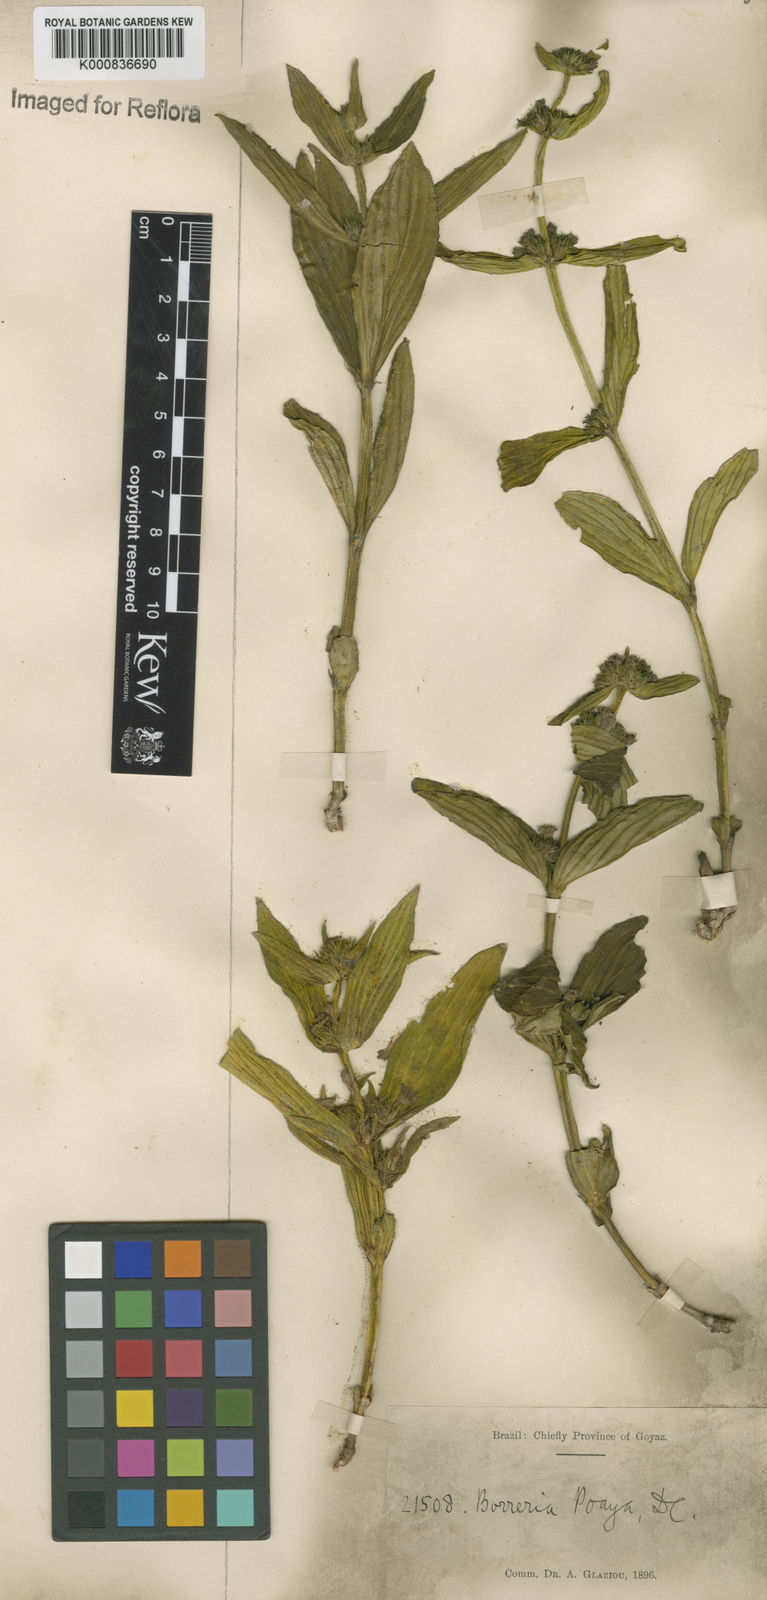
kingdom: Plantae
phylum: Tracheophyta
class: Magnoliopsida
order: Gentianales
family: Rubiaceae
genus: Spermacoce
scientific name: Spermacoce poaya
